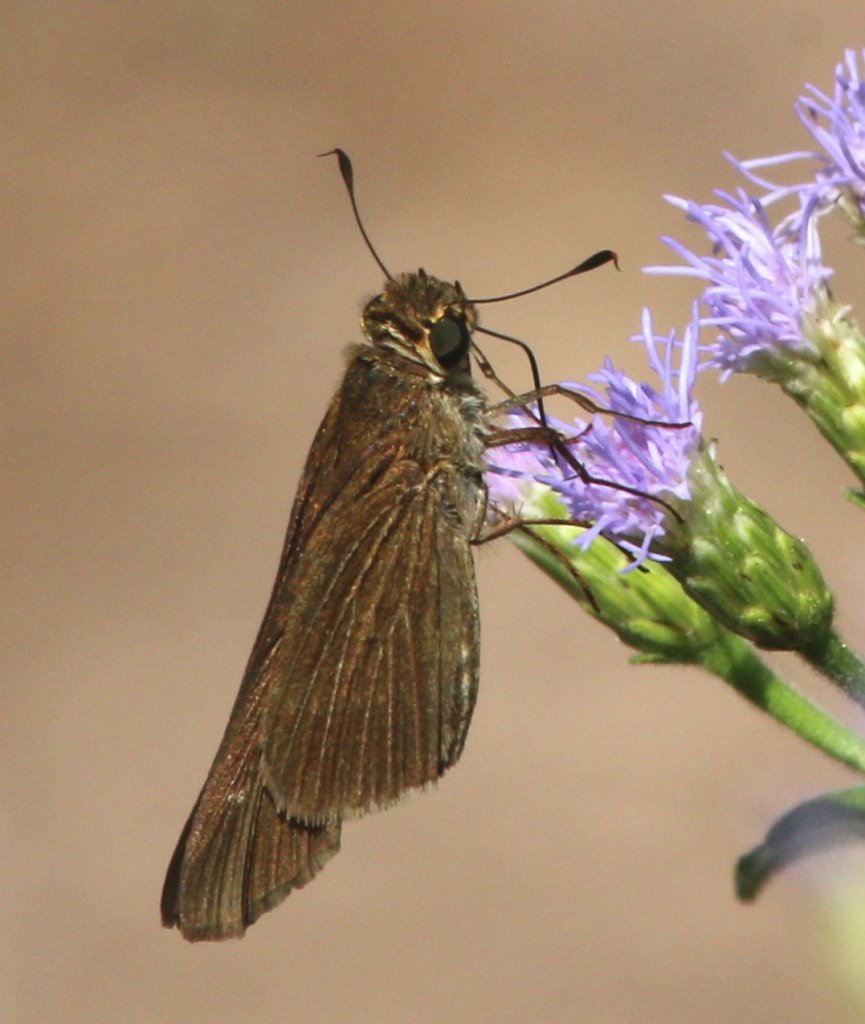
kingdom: Animalia
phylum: Arthropoda
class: Insecta
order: Lepidoptera
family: Hesperiidae
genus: Panoquina
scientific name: Panoquina ocola
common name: Ocola Skipper
